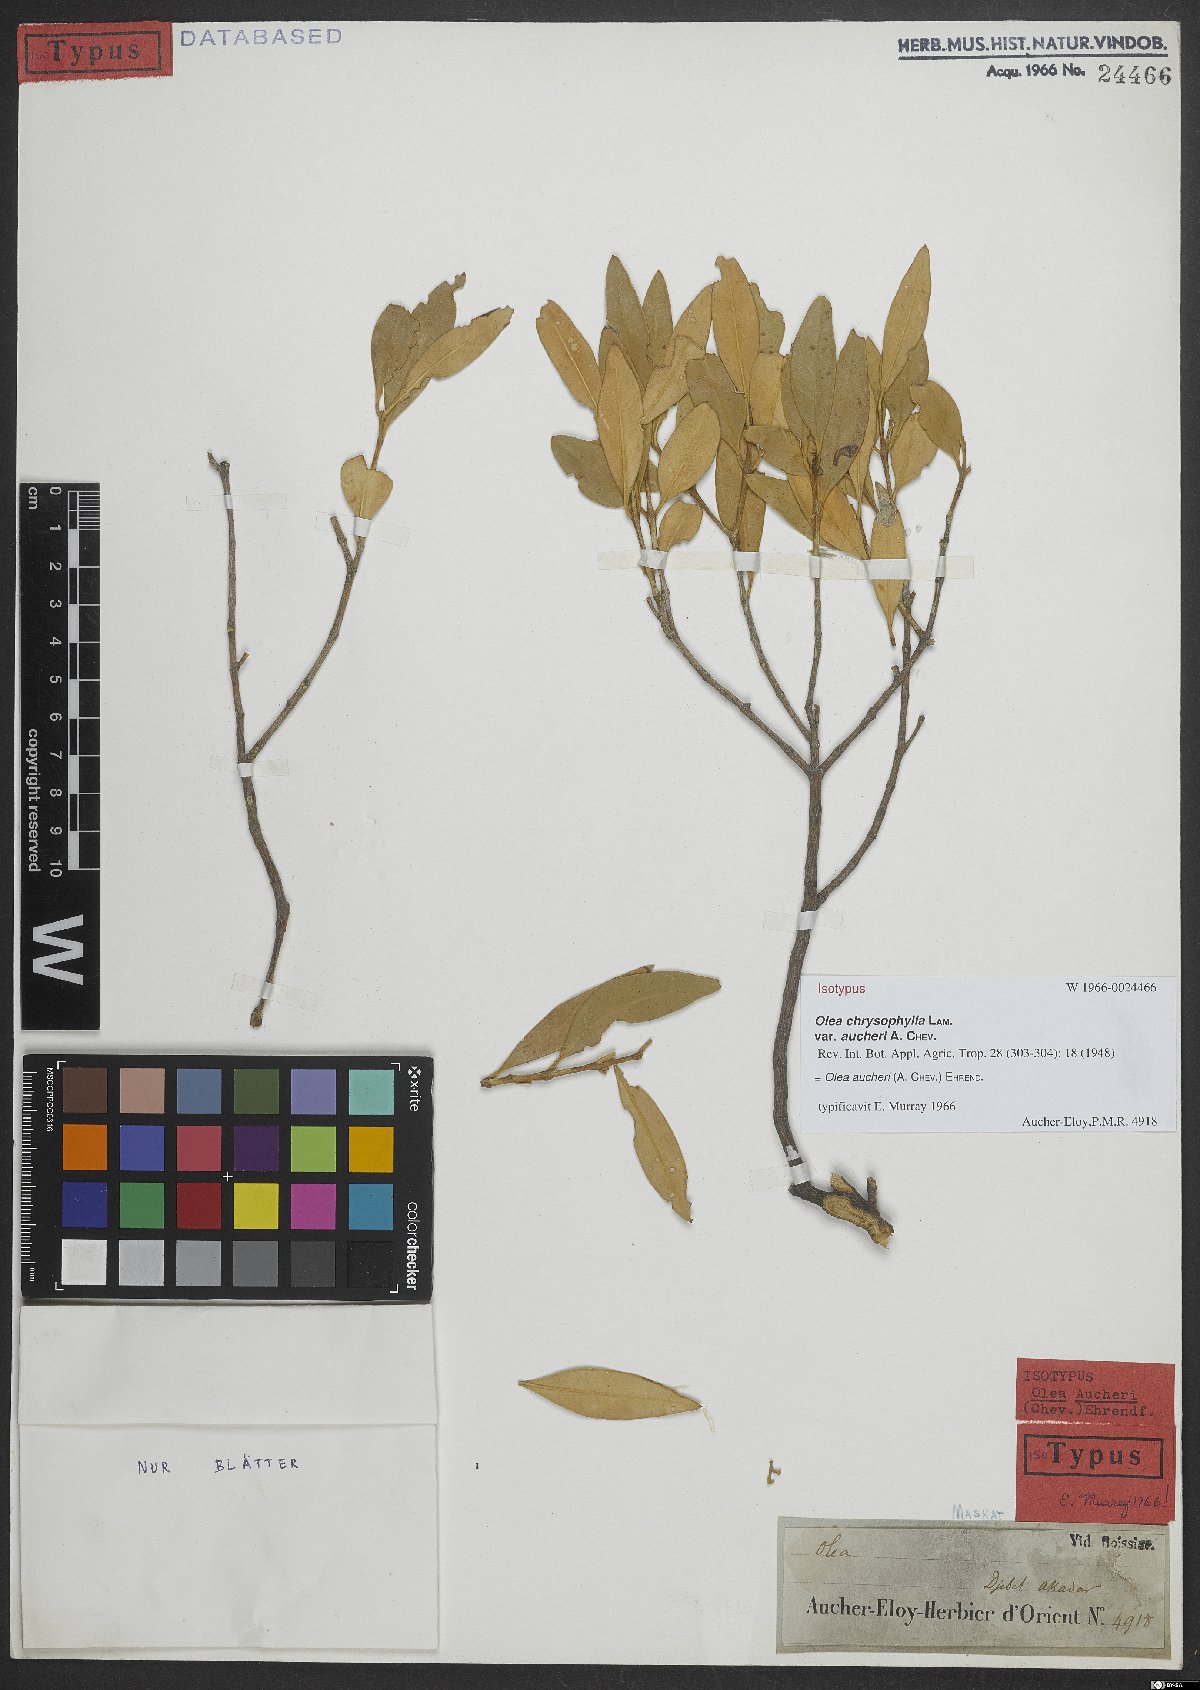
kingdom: Plantae
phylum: Tracheophyta
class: Magnoliopsida
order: Lamiales
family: Oleaceae
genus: Olea
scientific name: Olea europaea
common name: Olive
